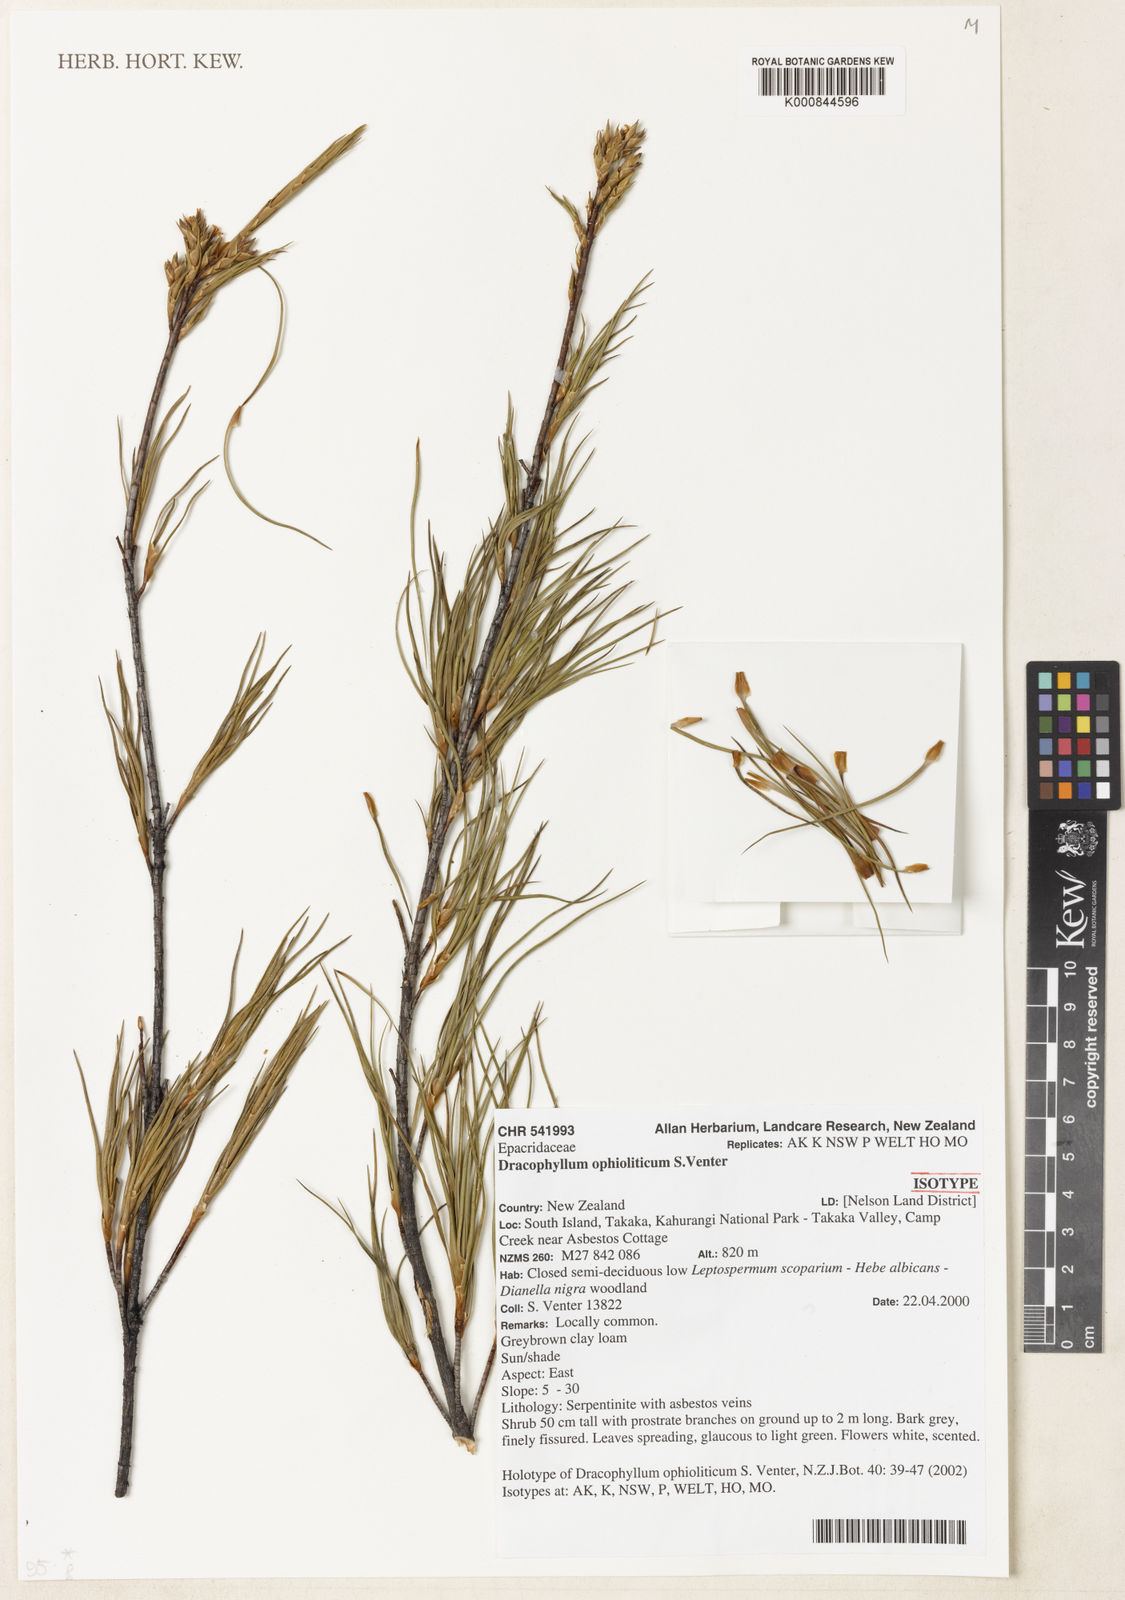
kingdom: Plantae
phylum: Tracheophyta
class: Magnoliopsida
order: Ericales
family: Ericaceae
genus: Dracophyllum
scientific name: Dracophyllum ophioliticum
